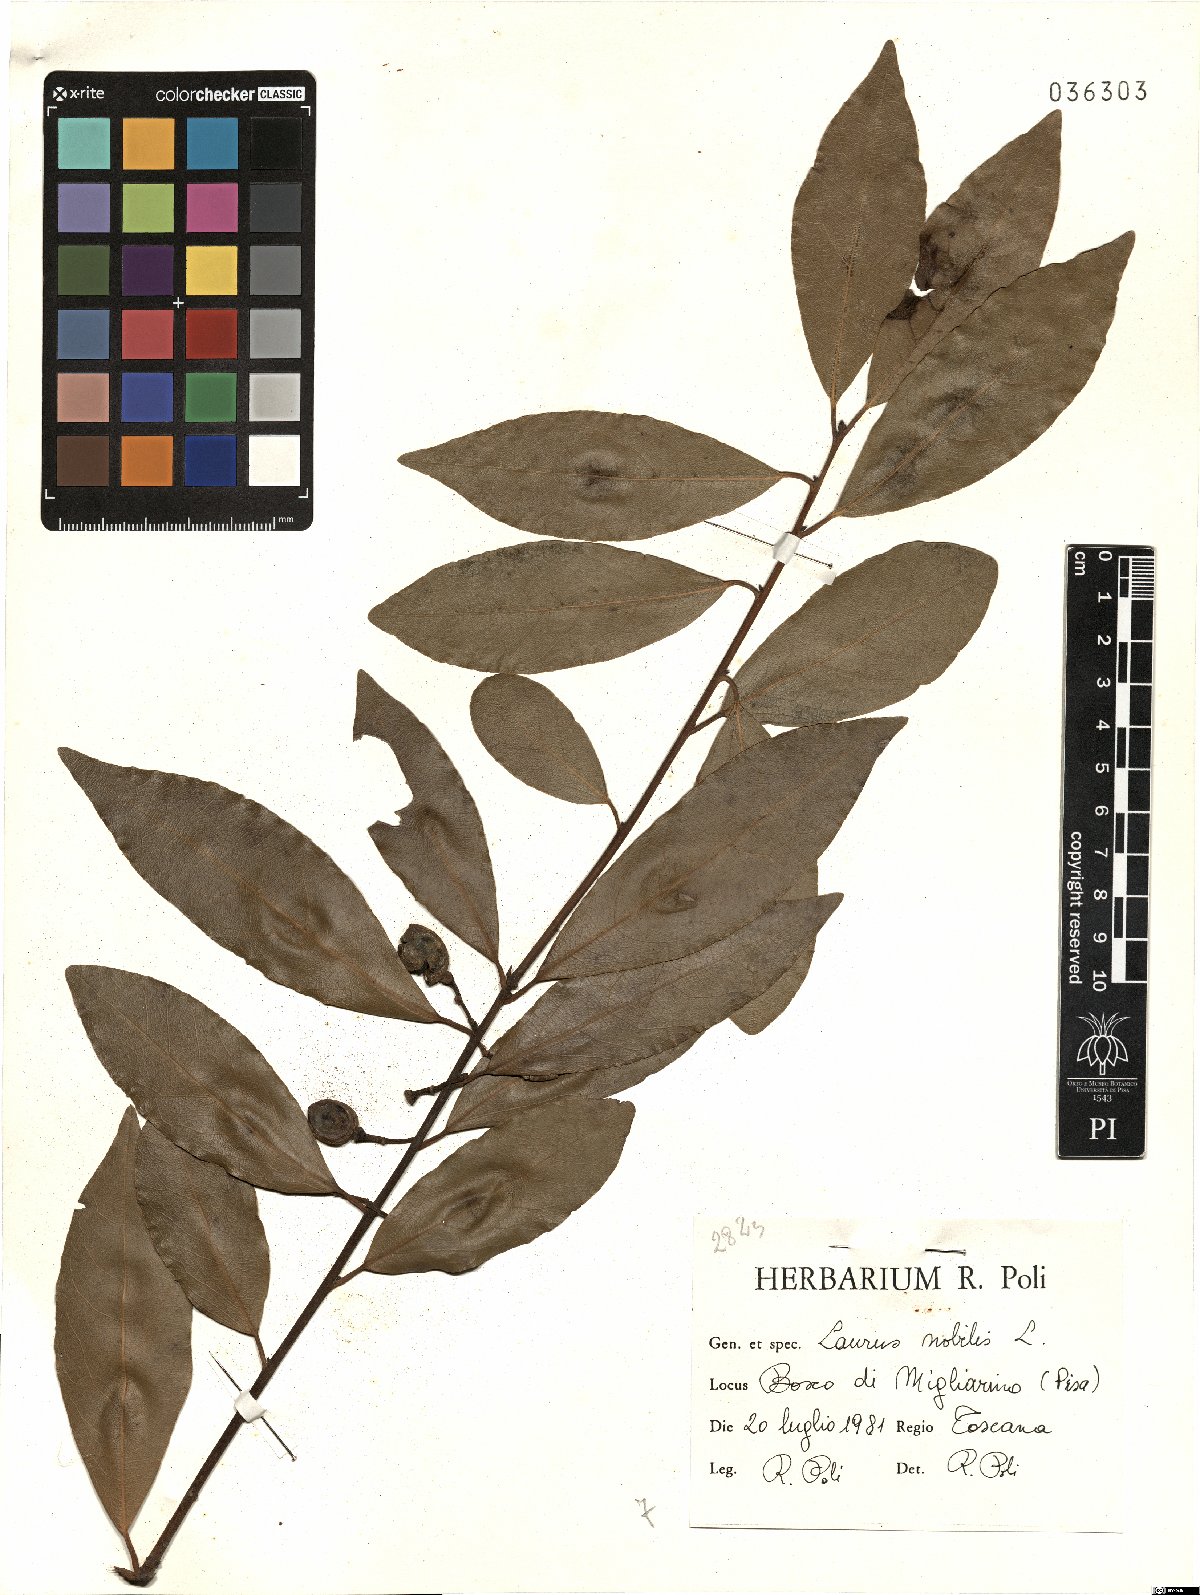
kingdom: Plantae
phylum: Tracheophyta
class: Magnoliopsida
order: Laurales
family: Lauraceae
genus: Laurus
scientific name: Laurus nobilis
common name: Bay
